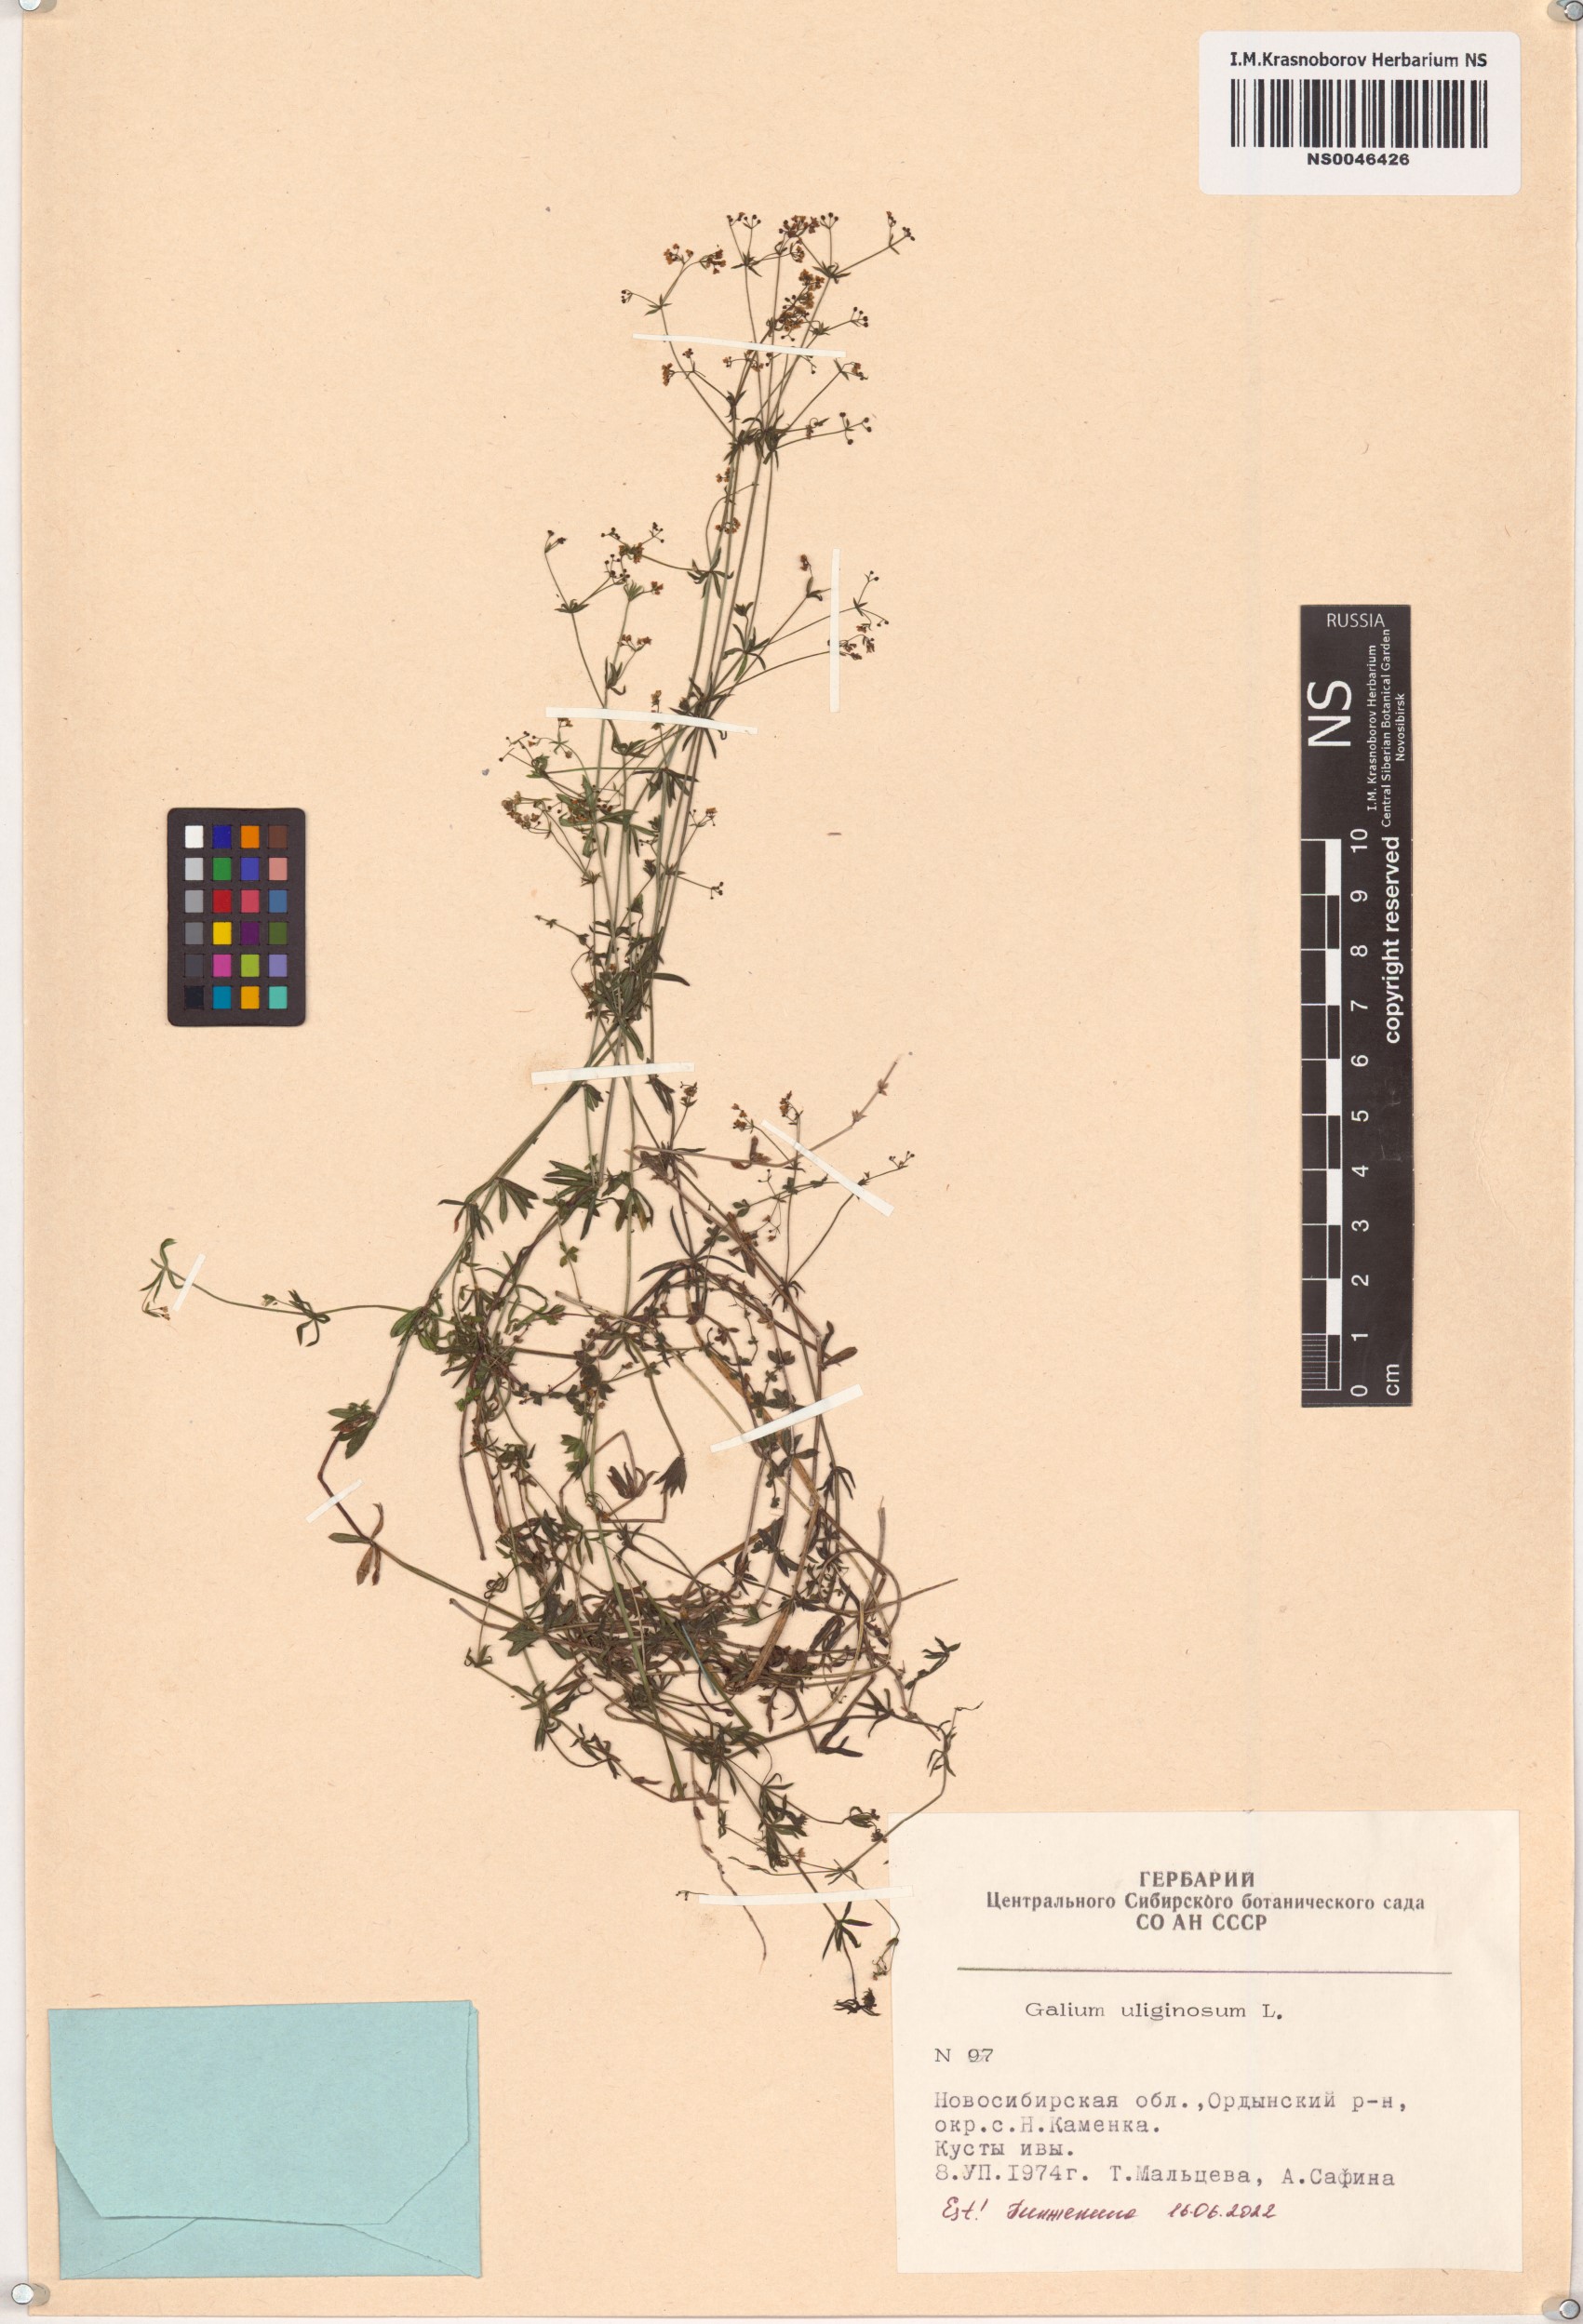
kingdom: Plantae
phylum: Tracheophyta
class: Magnoliopsida
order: Gentianales
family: Rubiaceae
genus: Galium
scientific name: Galium uliginosum
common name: Fen bedstraw
